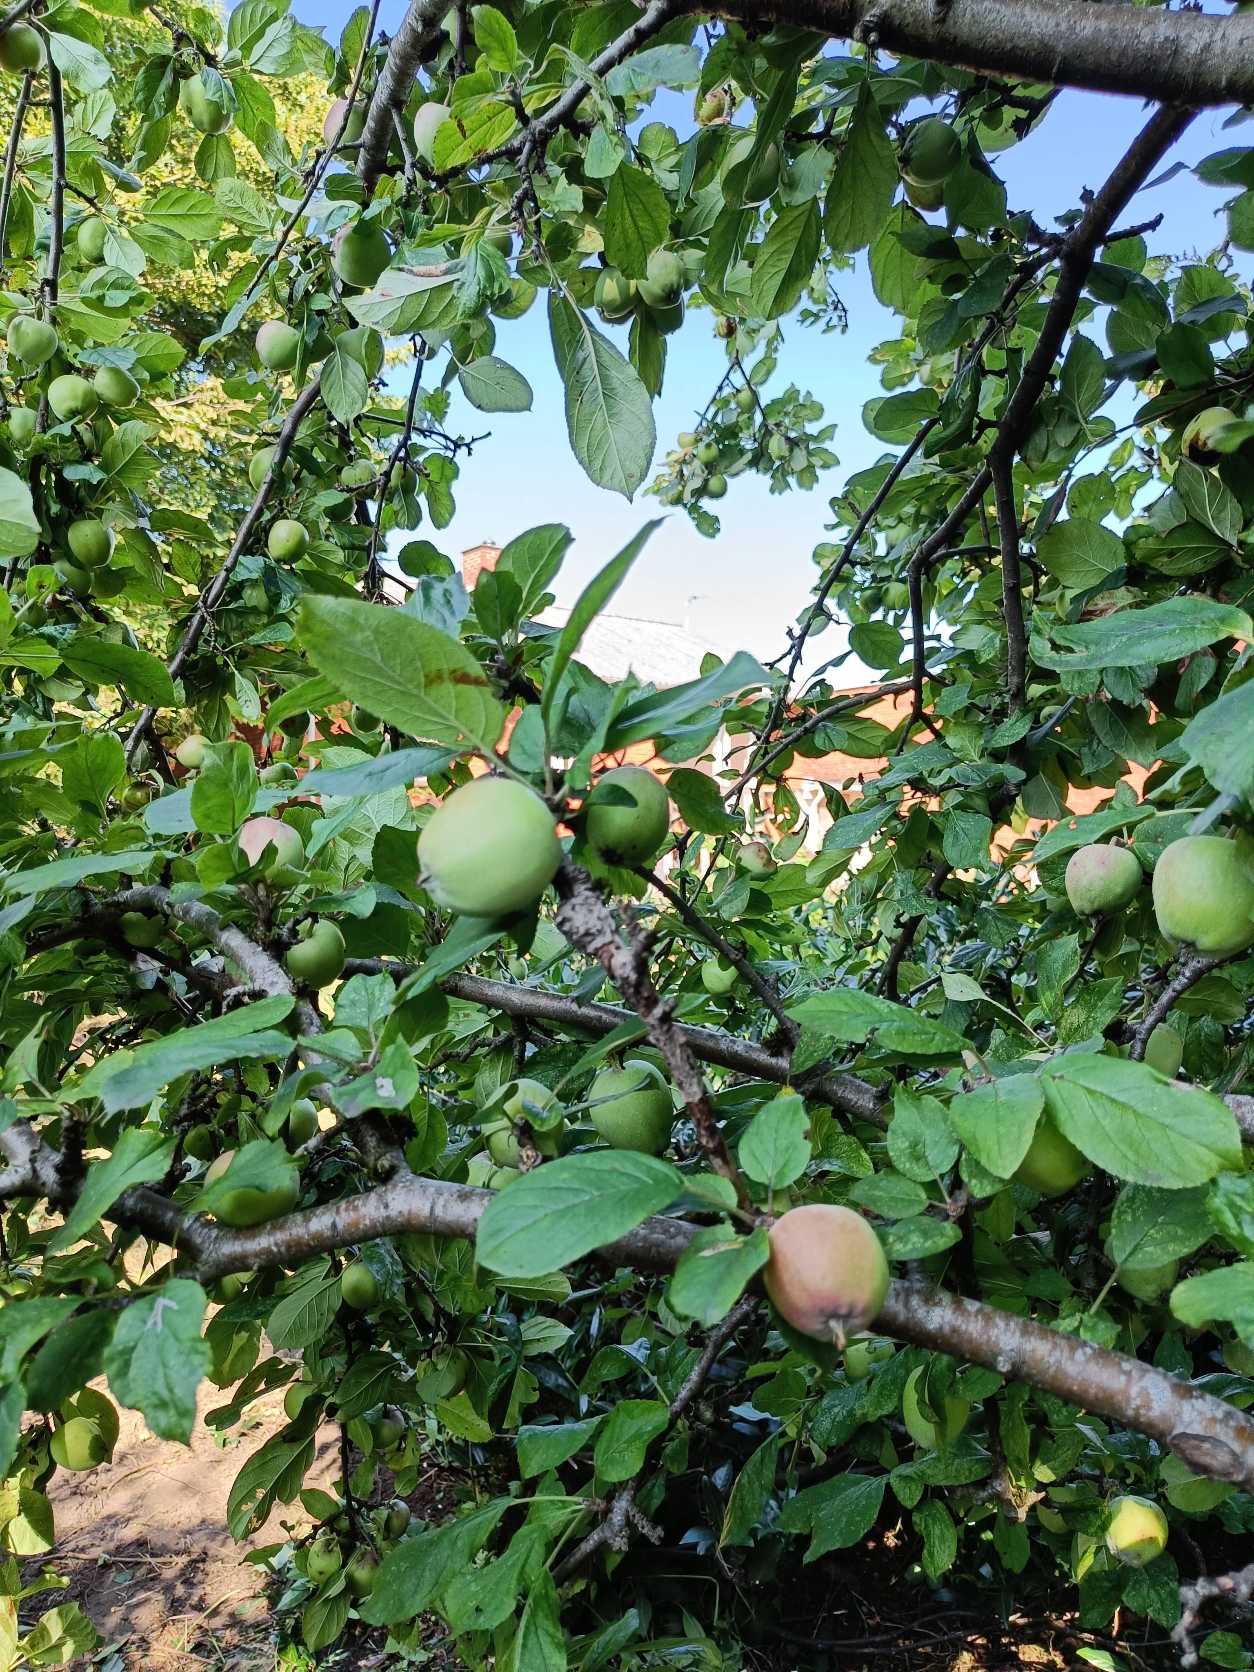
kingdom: Plantae
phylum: Tracheophyta
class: Magnoliopsida
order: Rosales
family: Rosaceae
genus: Malus
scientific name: Malus domestica
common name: Sød-æble
